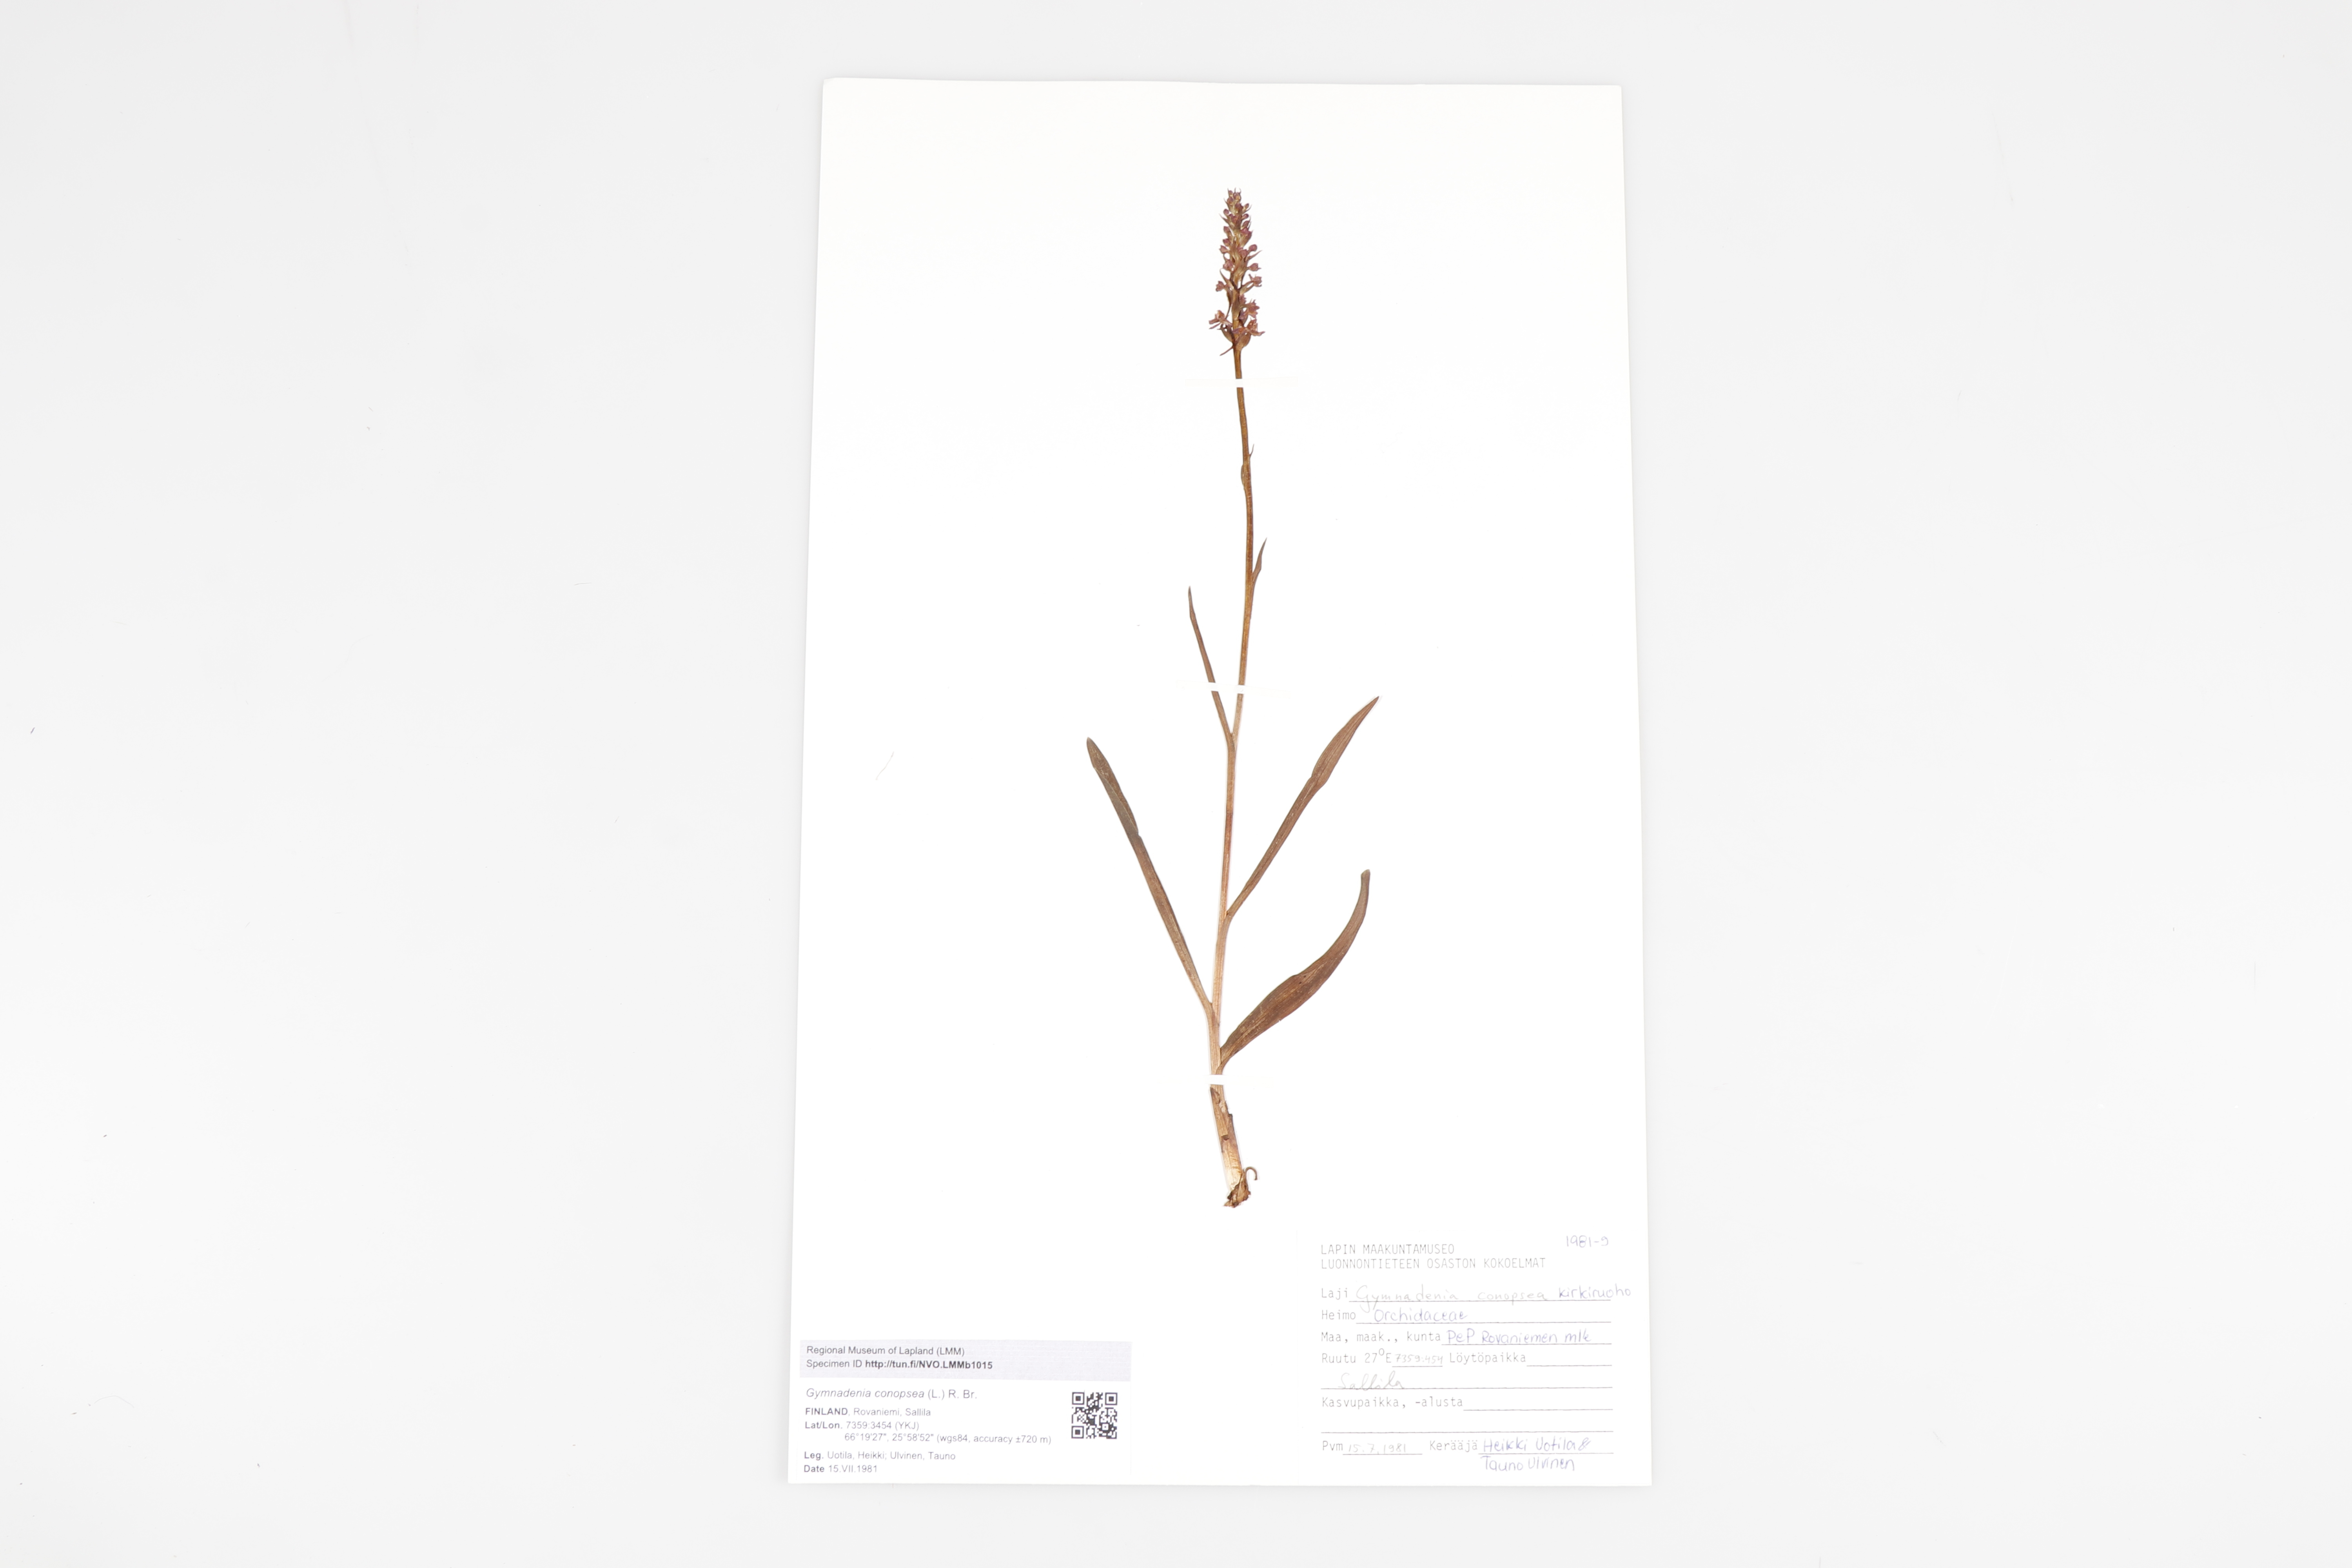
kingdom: Plantae
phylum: Tracheophyta
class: Liliopsida
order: Asparagales
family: Orchidaceae
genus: Gymnadenia
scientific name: Gymnadenia conopsea
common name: Fragrant orchid
